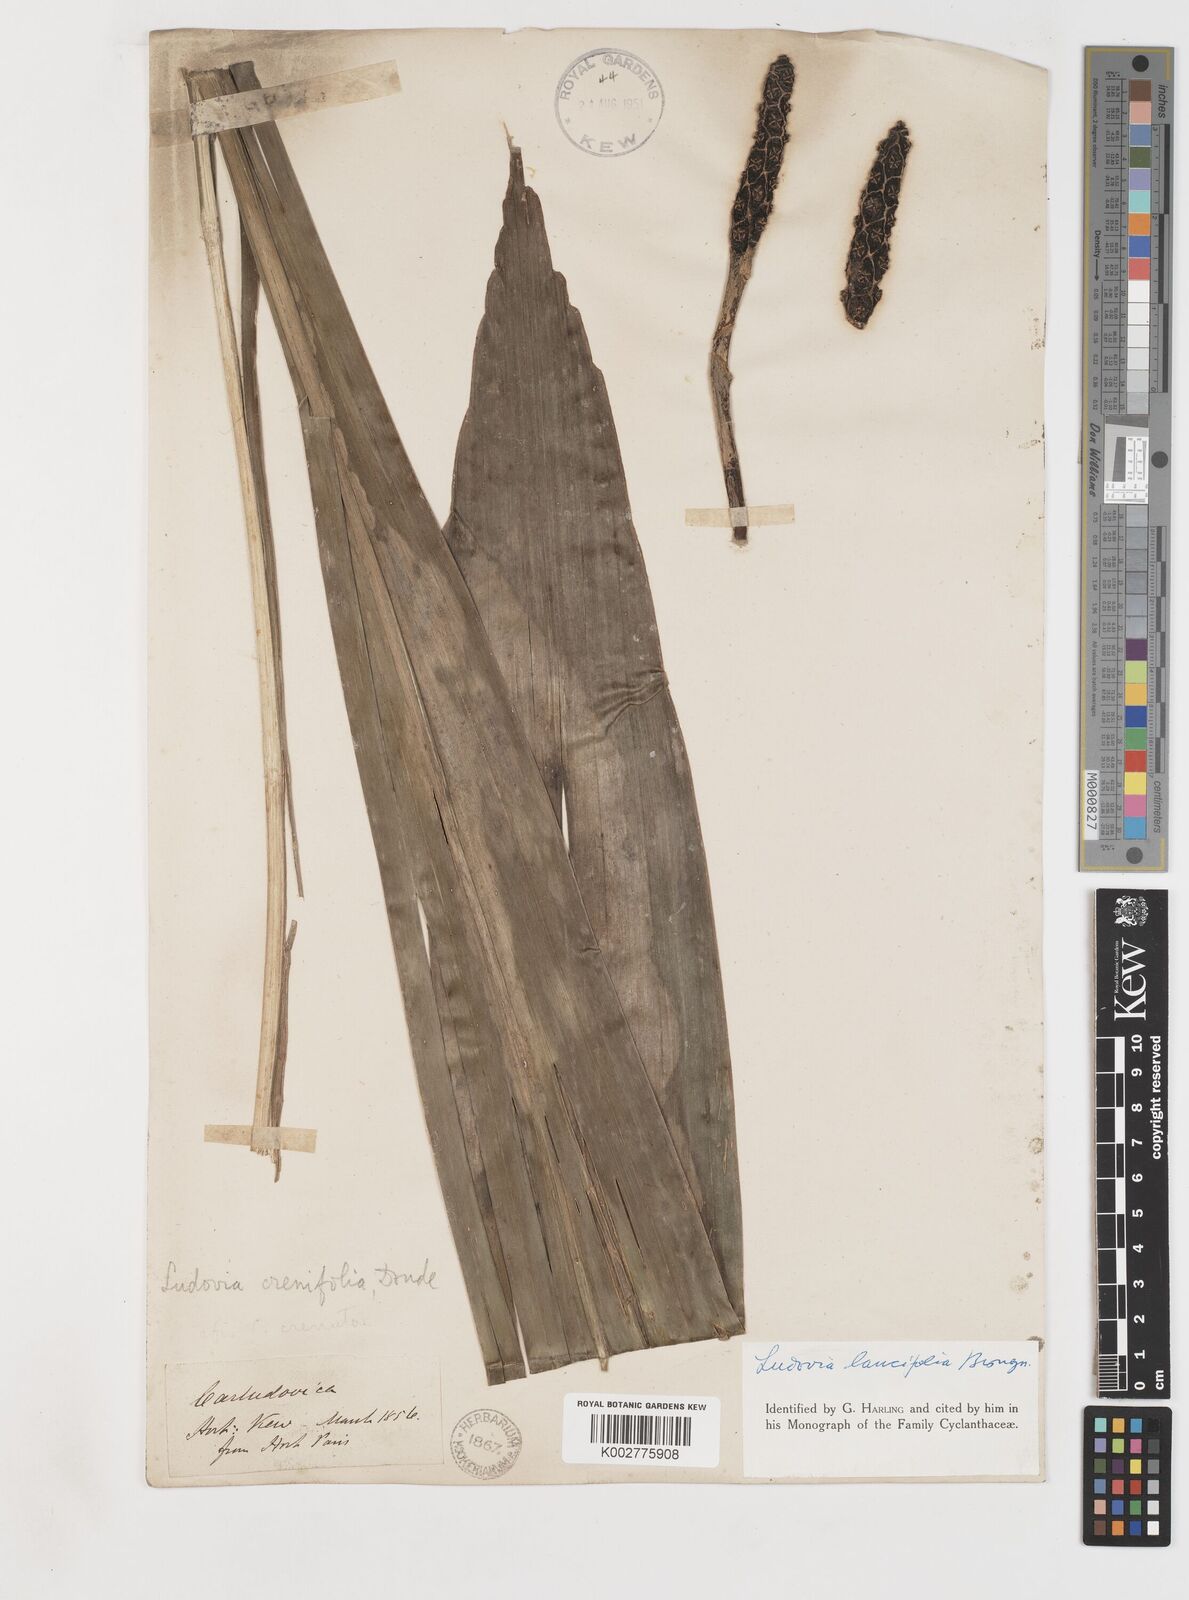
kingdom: Plantae
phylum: Tracheophyta
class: Liliopsida
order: Pandanales
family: Cyclanthaceae
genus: Ludovia
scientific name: Ludovia lancifolia
